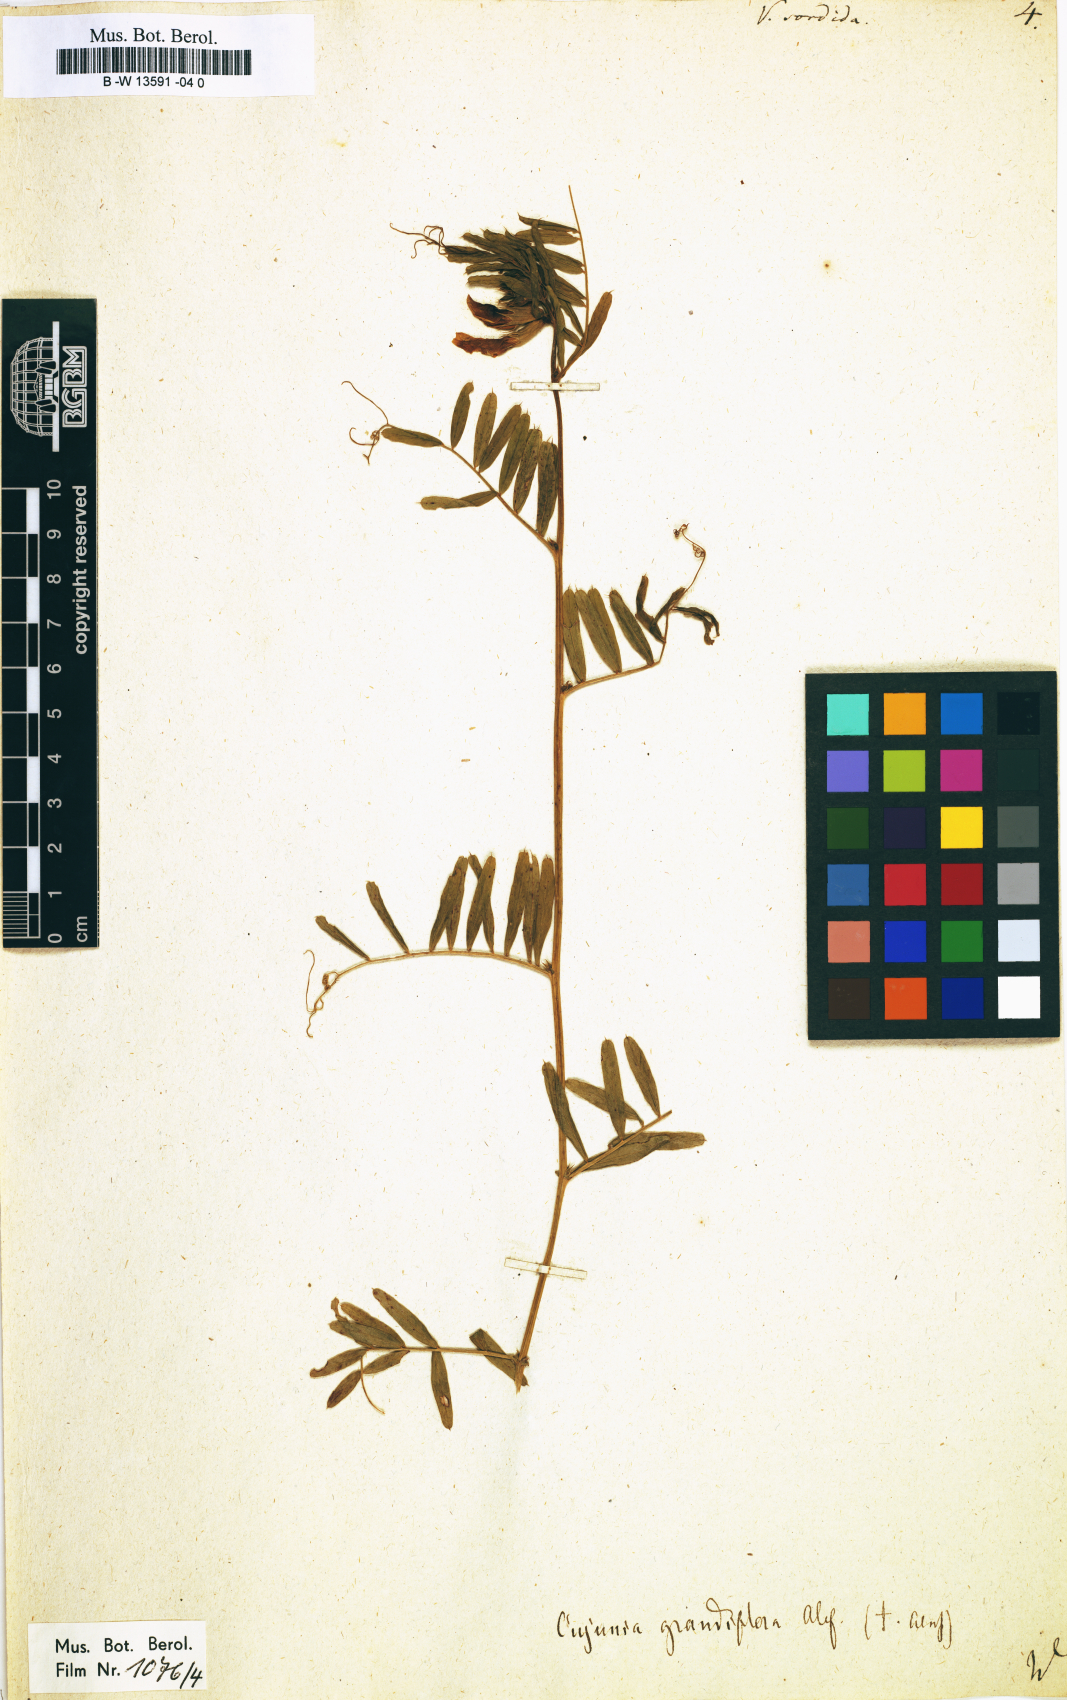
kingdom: Plantae
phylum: Tracheophyta
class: Magnoliopsida
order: Fabales
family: Fabaceae
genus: Vicia
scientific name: Vicia
